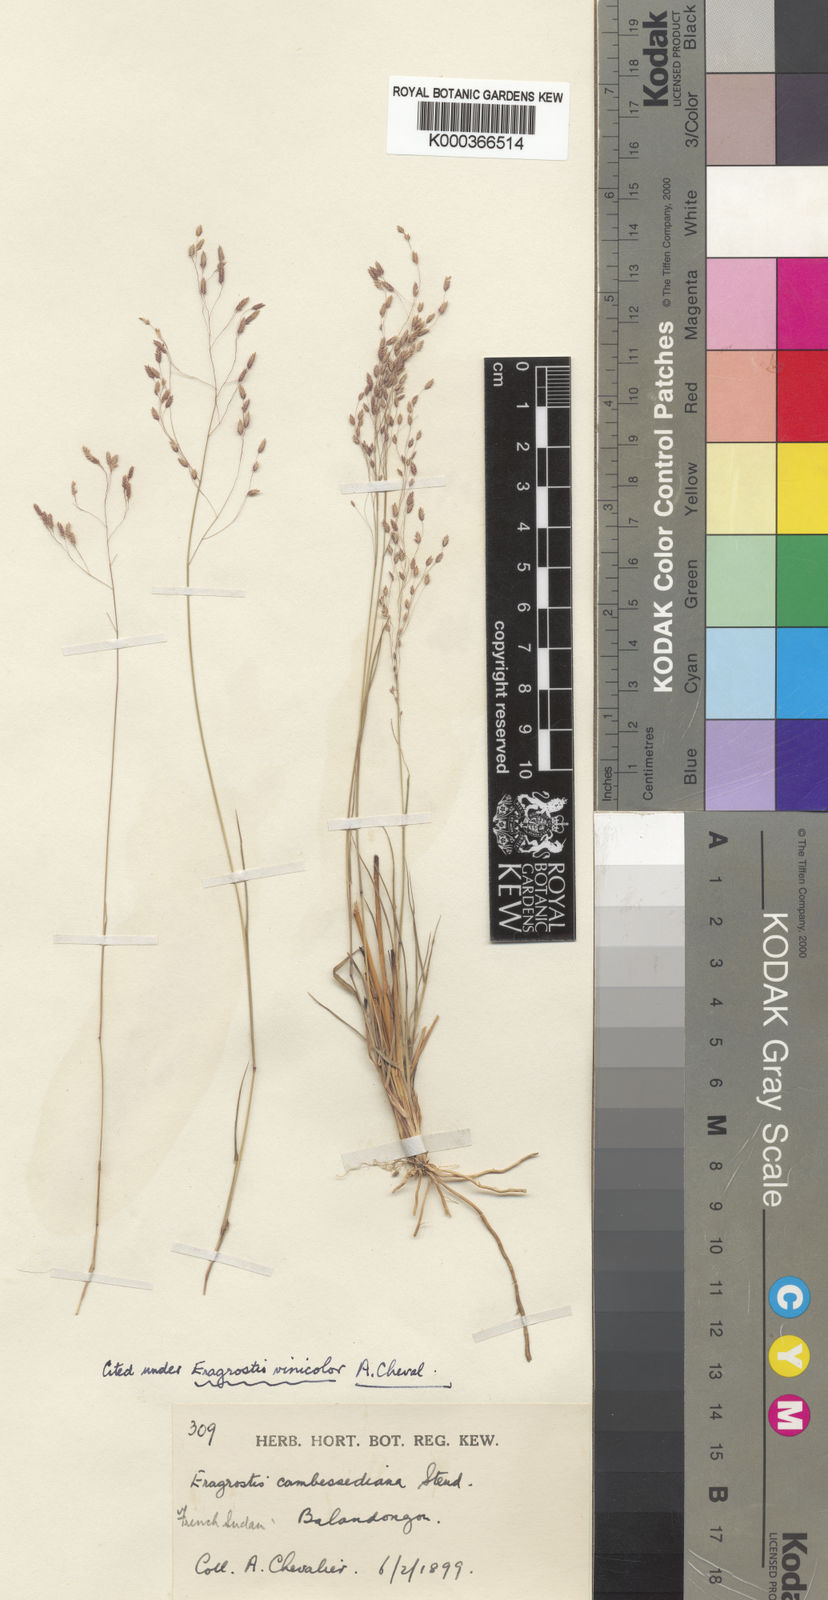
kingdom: Plantae
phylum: Tracheophyta
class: Liliopsida
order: Poales
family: Poaceae
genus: Eragrostis
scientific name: Eragrostis gangetica
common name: Slimflower lovegrass
